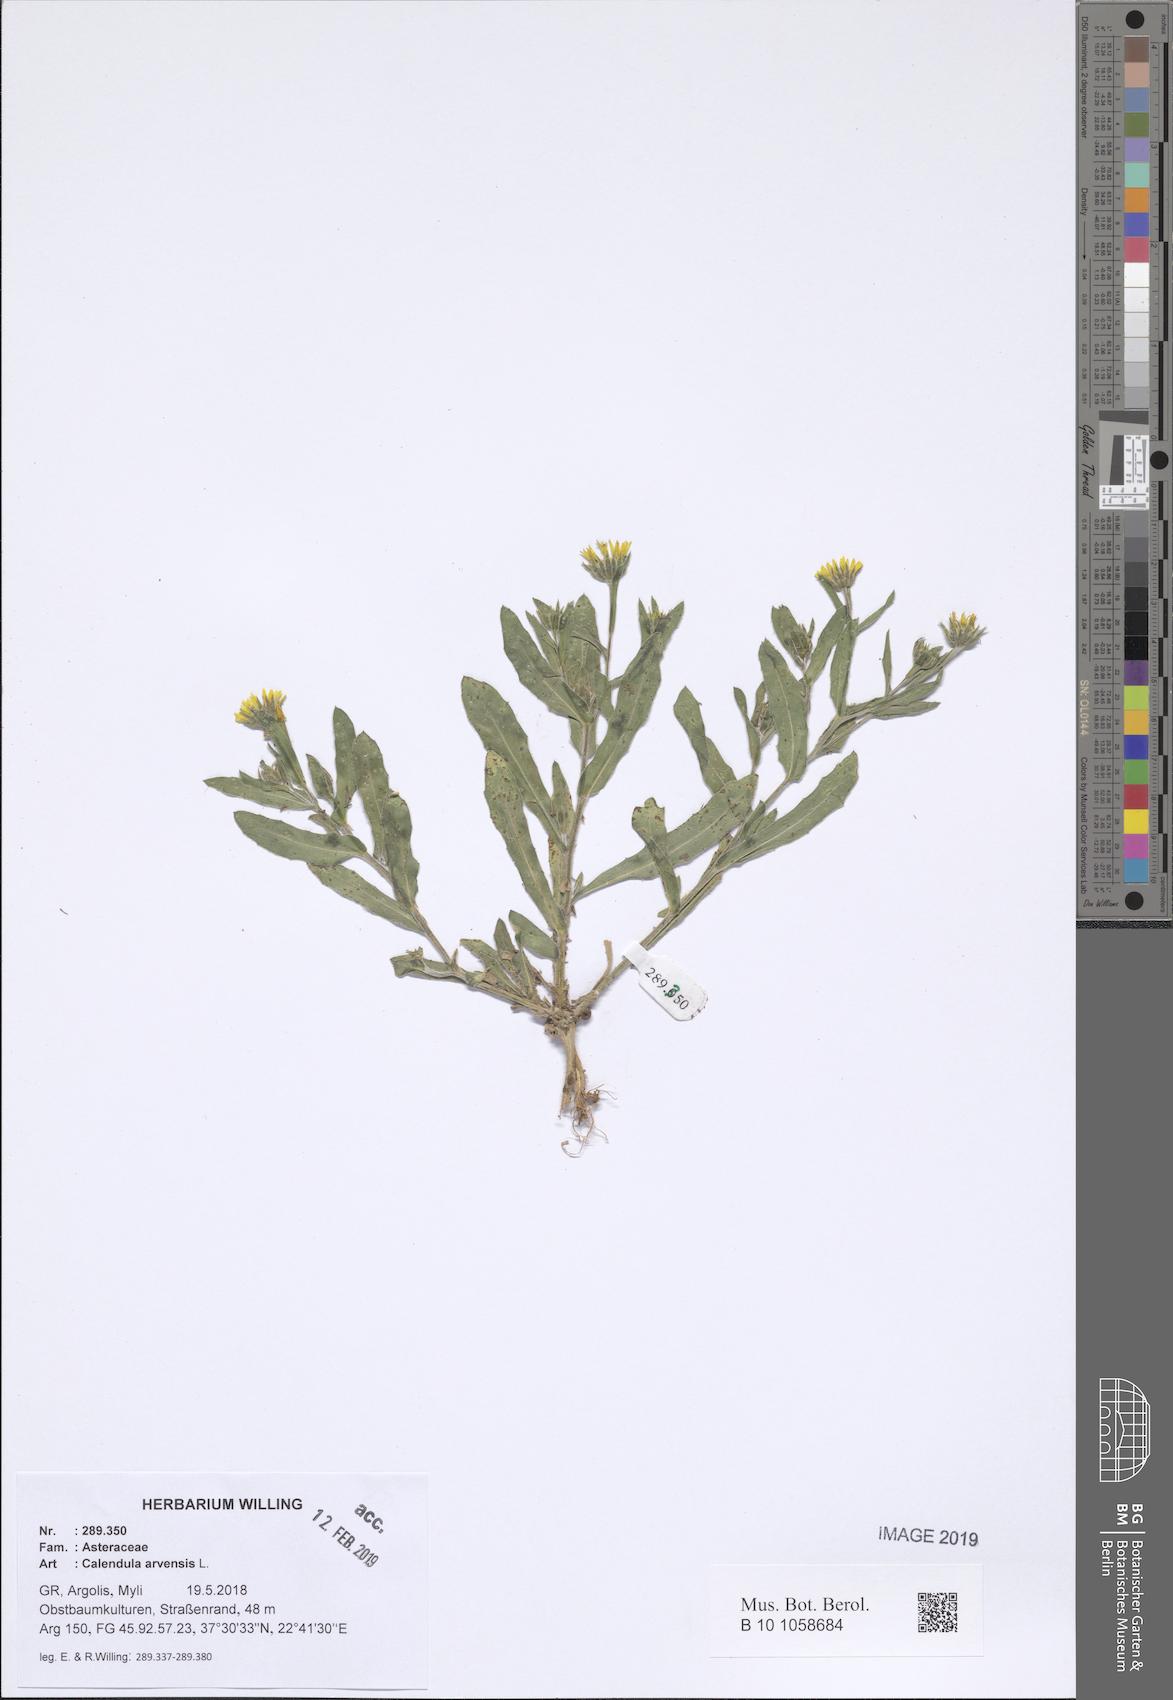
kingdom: Plantae
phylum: Tracheophyta
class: Magnoliopsida
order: Asterales
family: Asteraceae
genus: Calendula
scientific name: Calendula arvensis
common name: Field marigold
